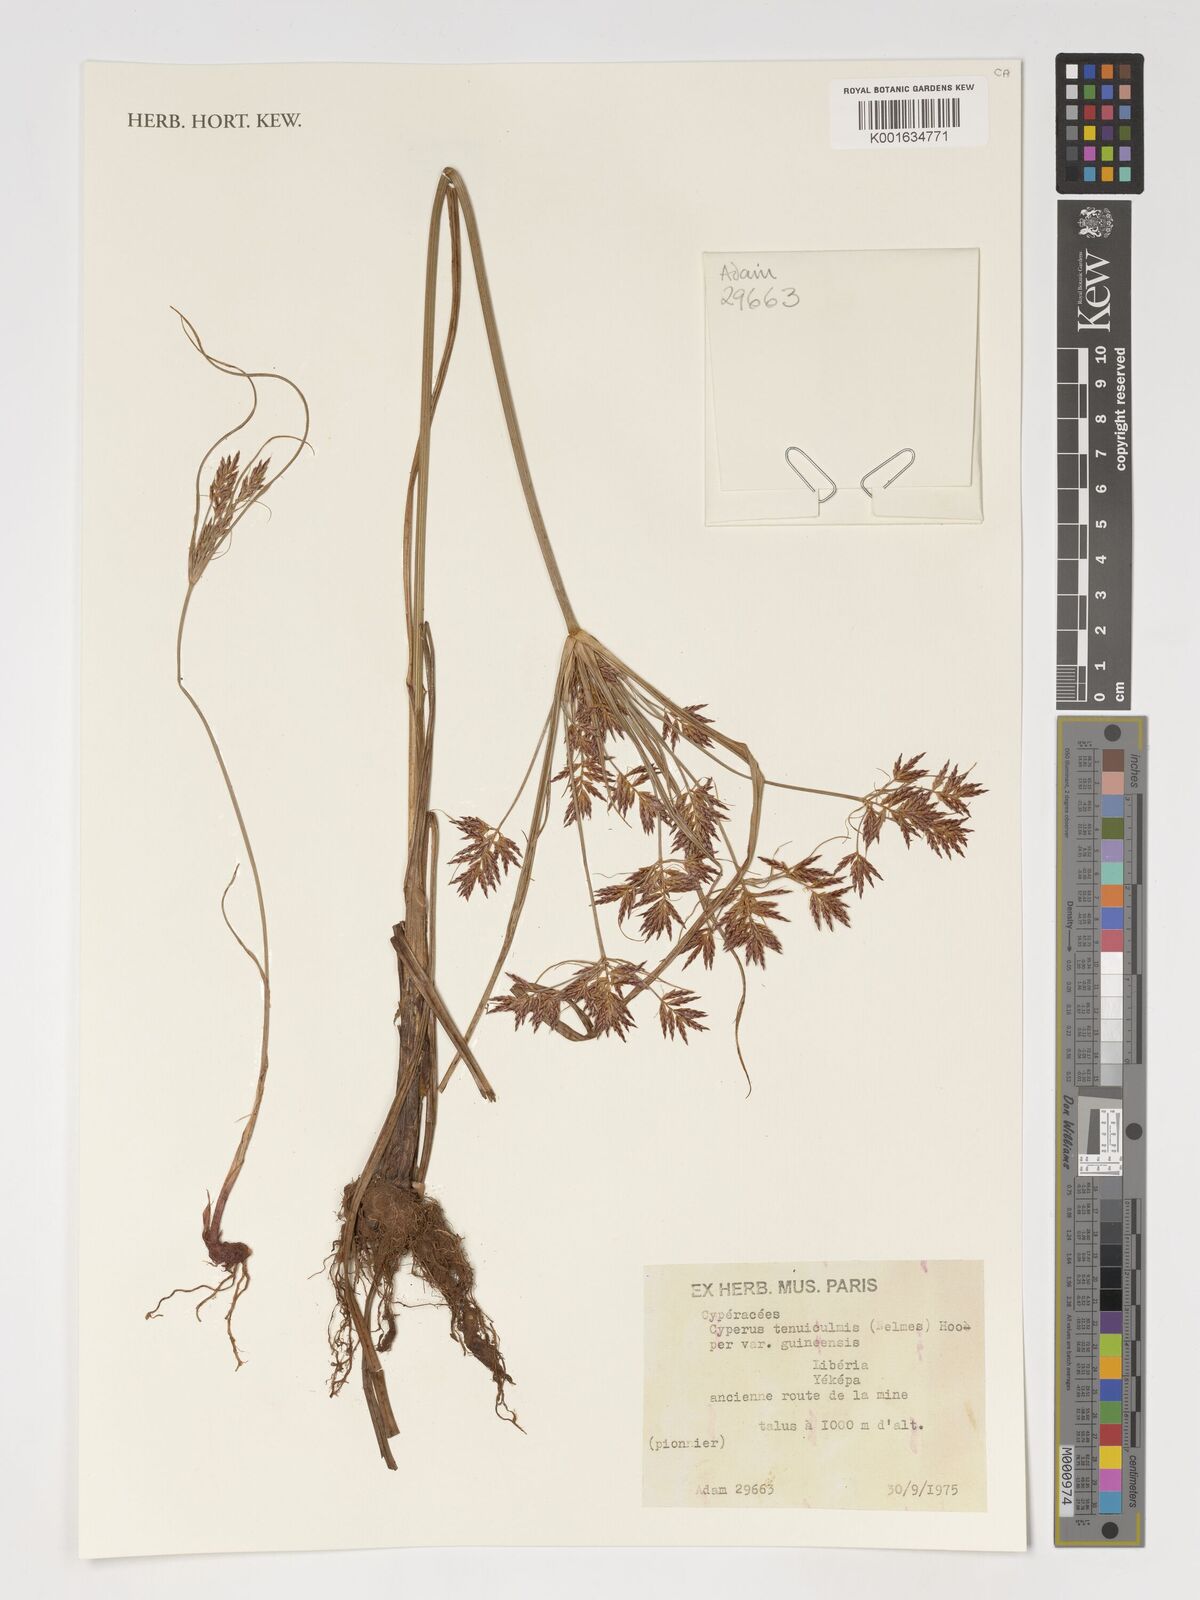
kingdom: Plantae
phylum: Tracheophyta
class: Liliopsida
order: Poales
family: Cyperaceae
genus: Cyperus
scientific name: Cyperus tenuiculmis
